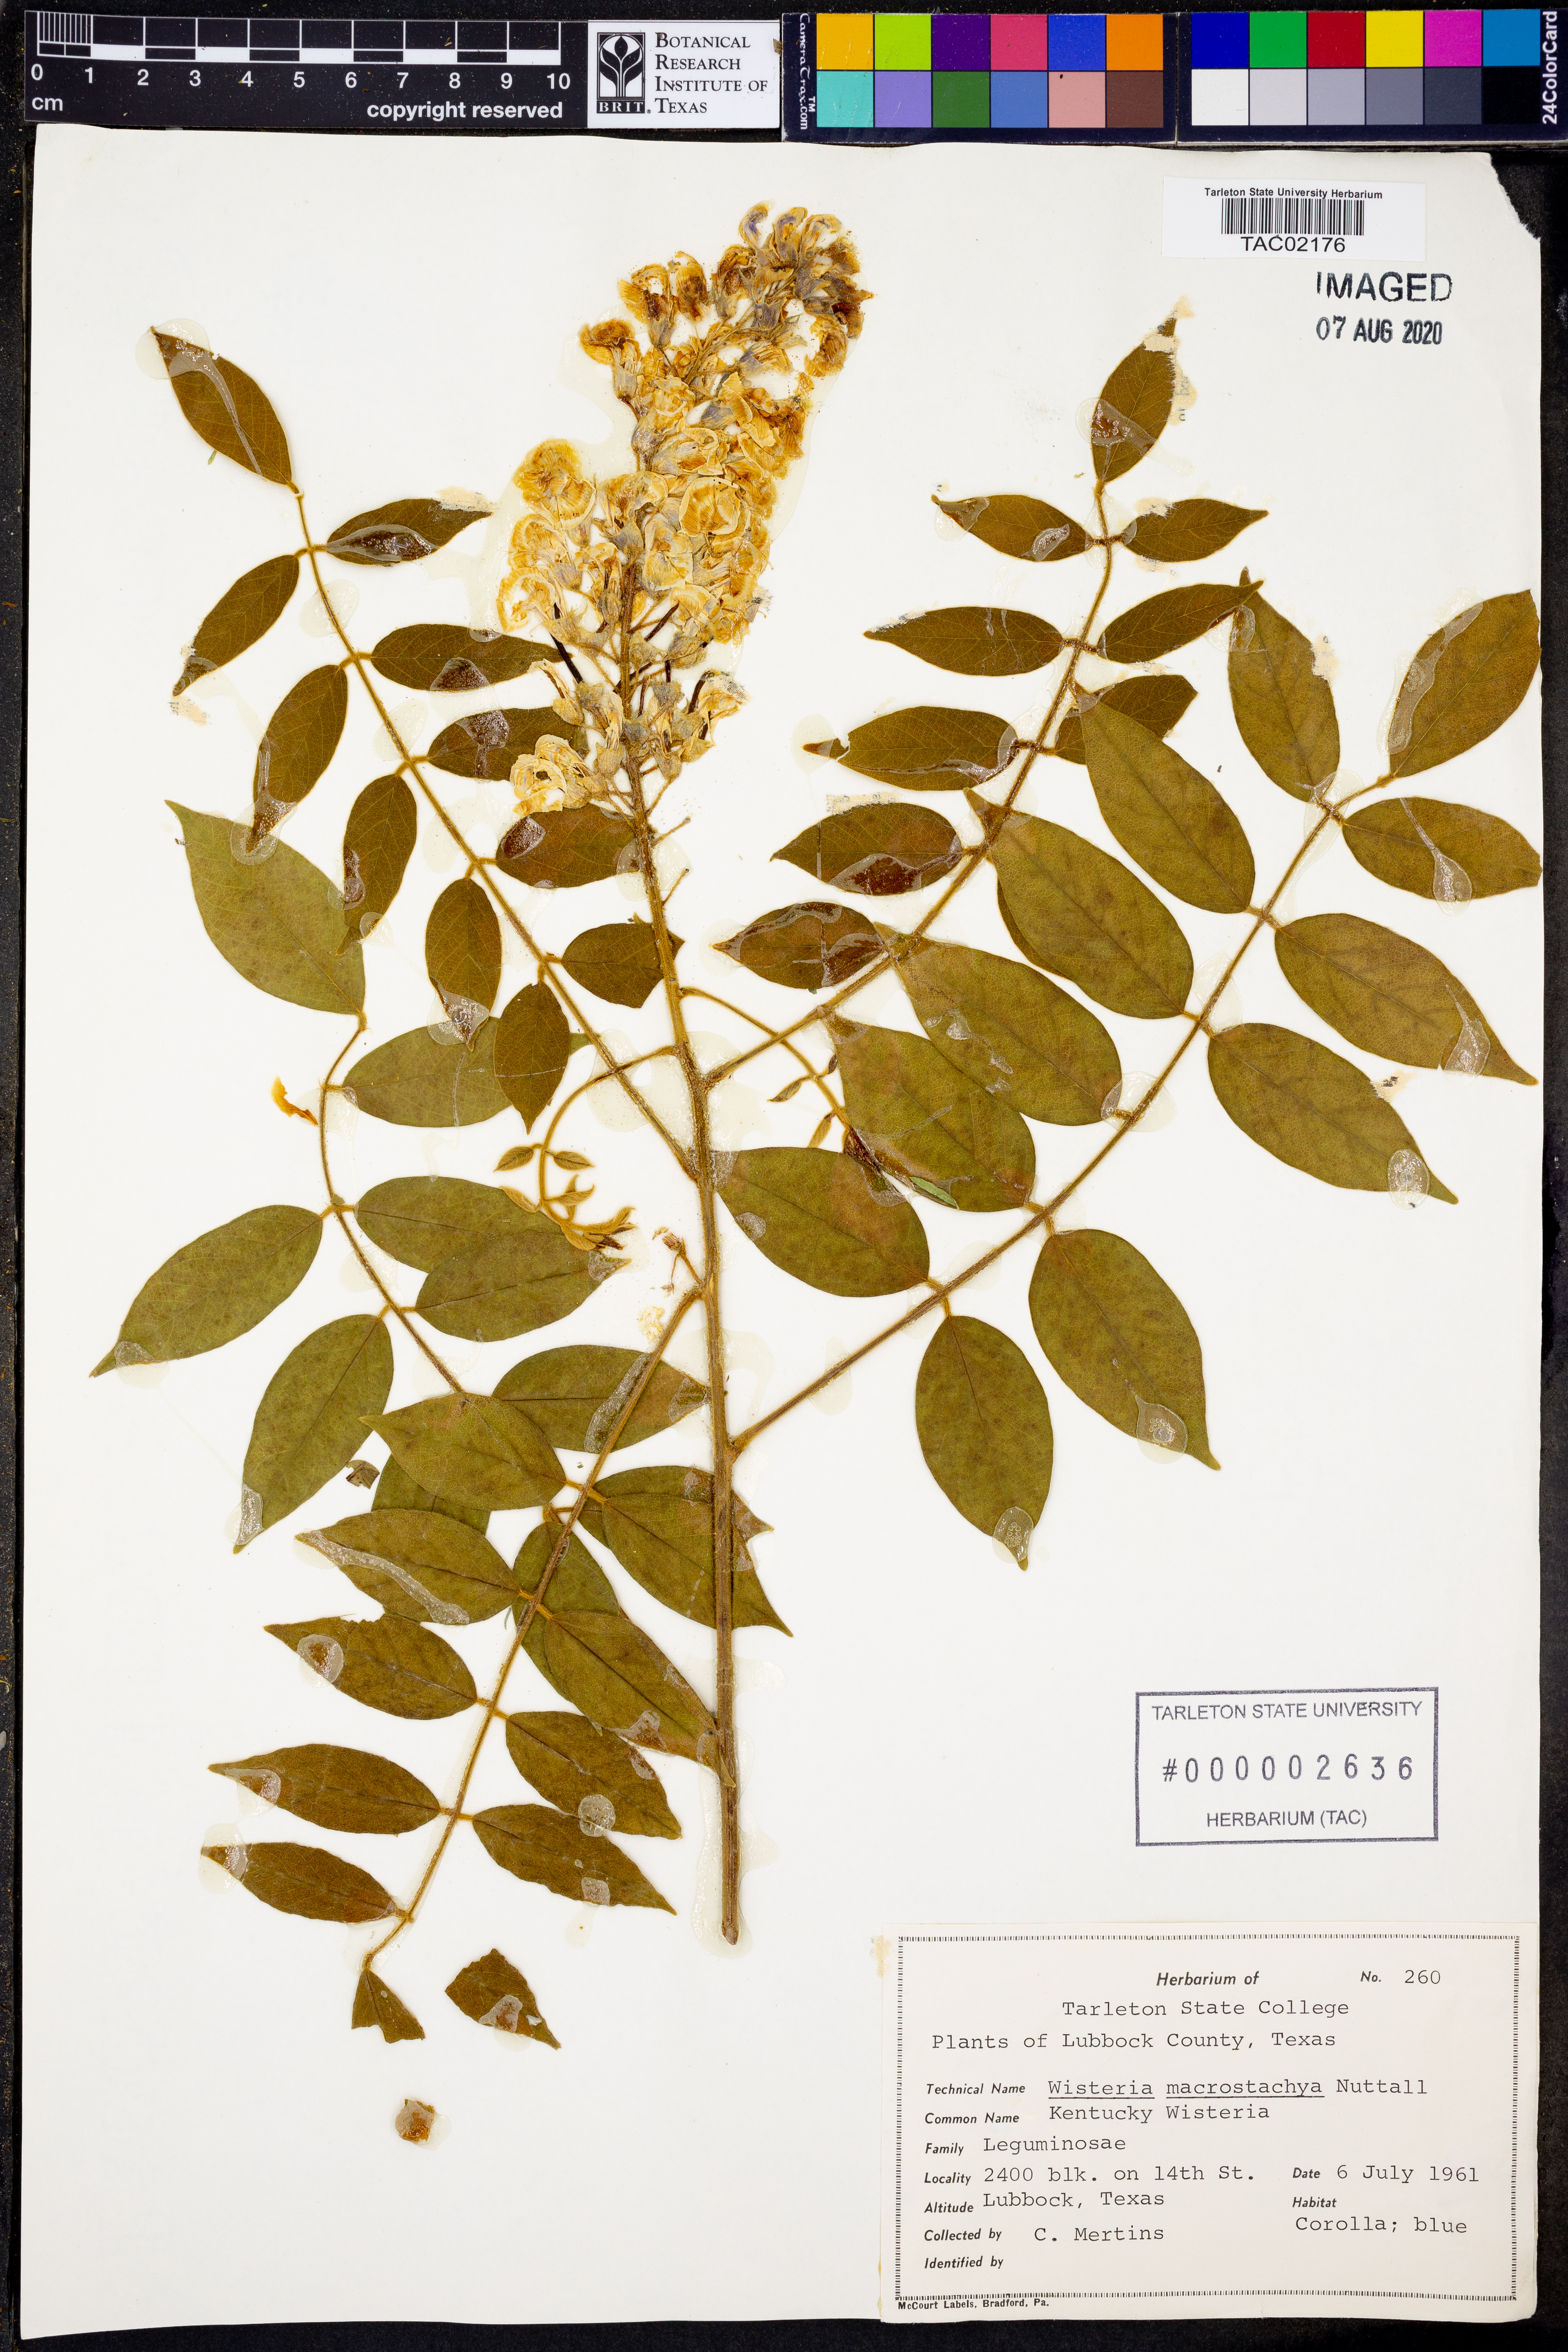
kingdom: Plantae
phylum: Tracheophyta
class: Magnoliopsida
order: Fabales
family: Fabaceae
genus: Wisteria
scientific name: Wisteria frutescens
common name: American wisteria
